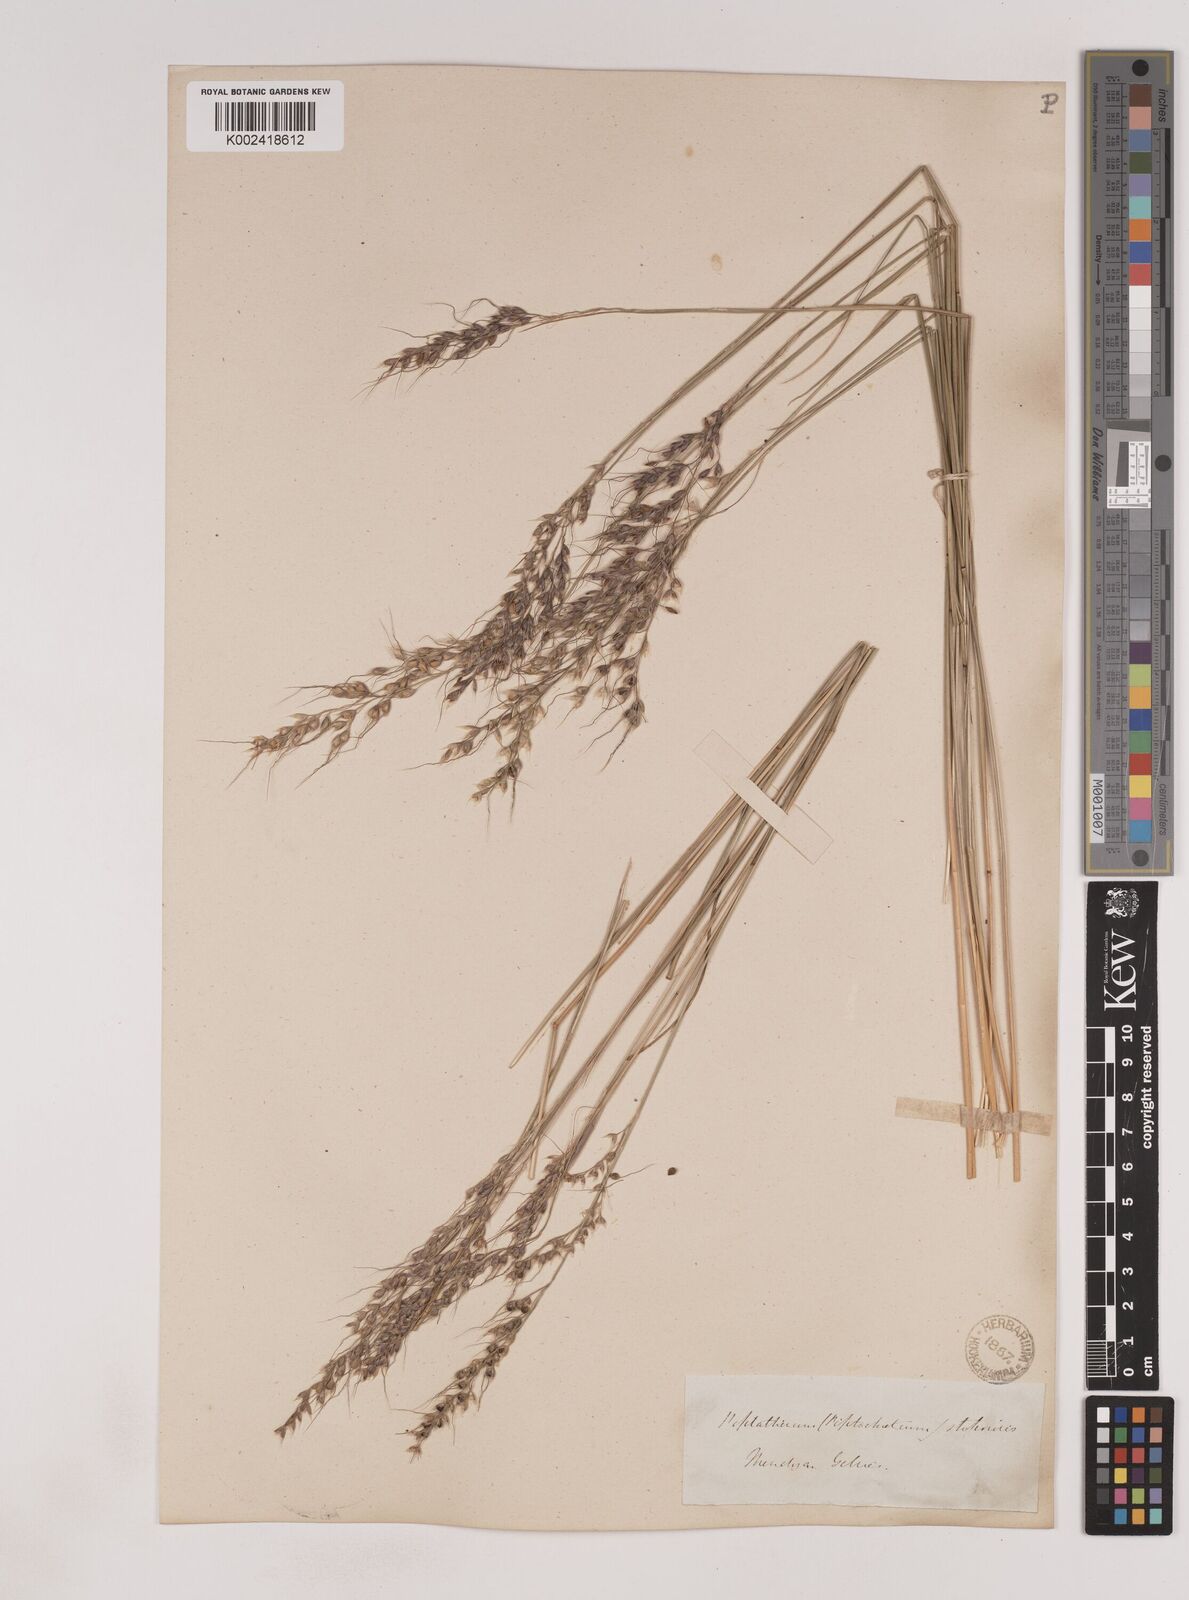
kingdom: Plantae
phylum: Tracheophyta
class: Liliopsida
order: Poales
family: Poaceae
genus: Piptochaetium
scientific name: Piptochaetium
